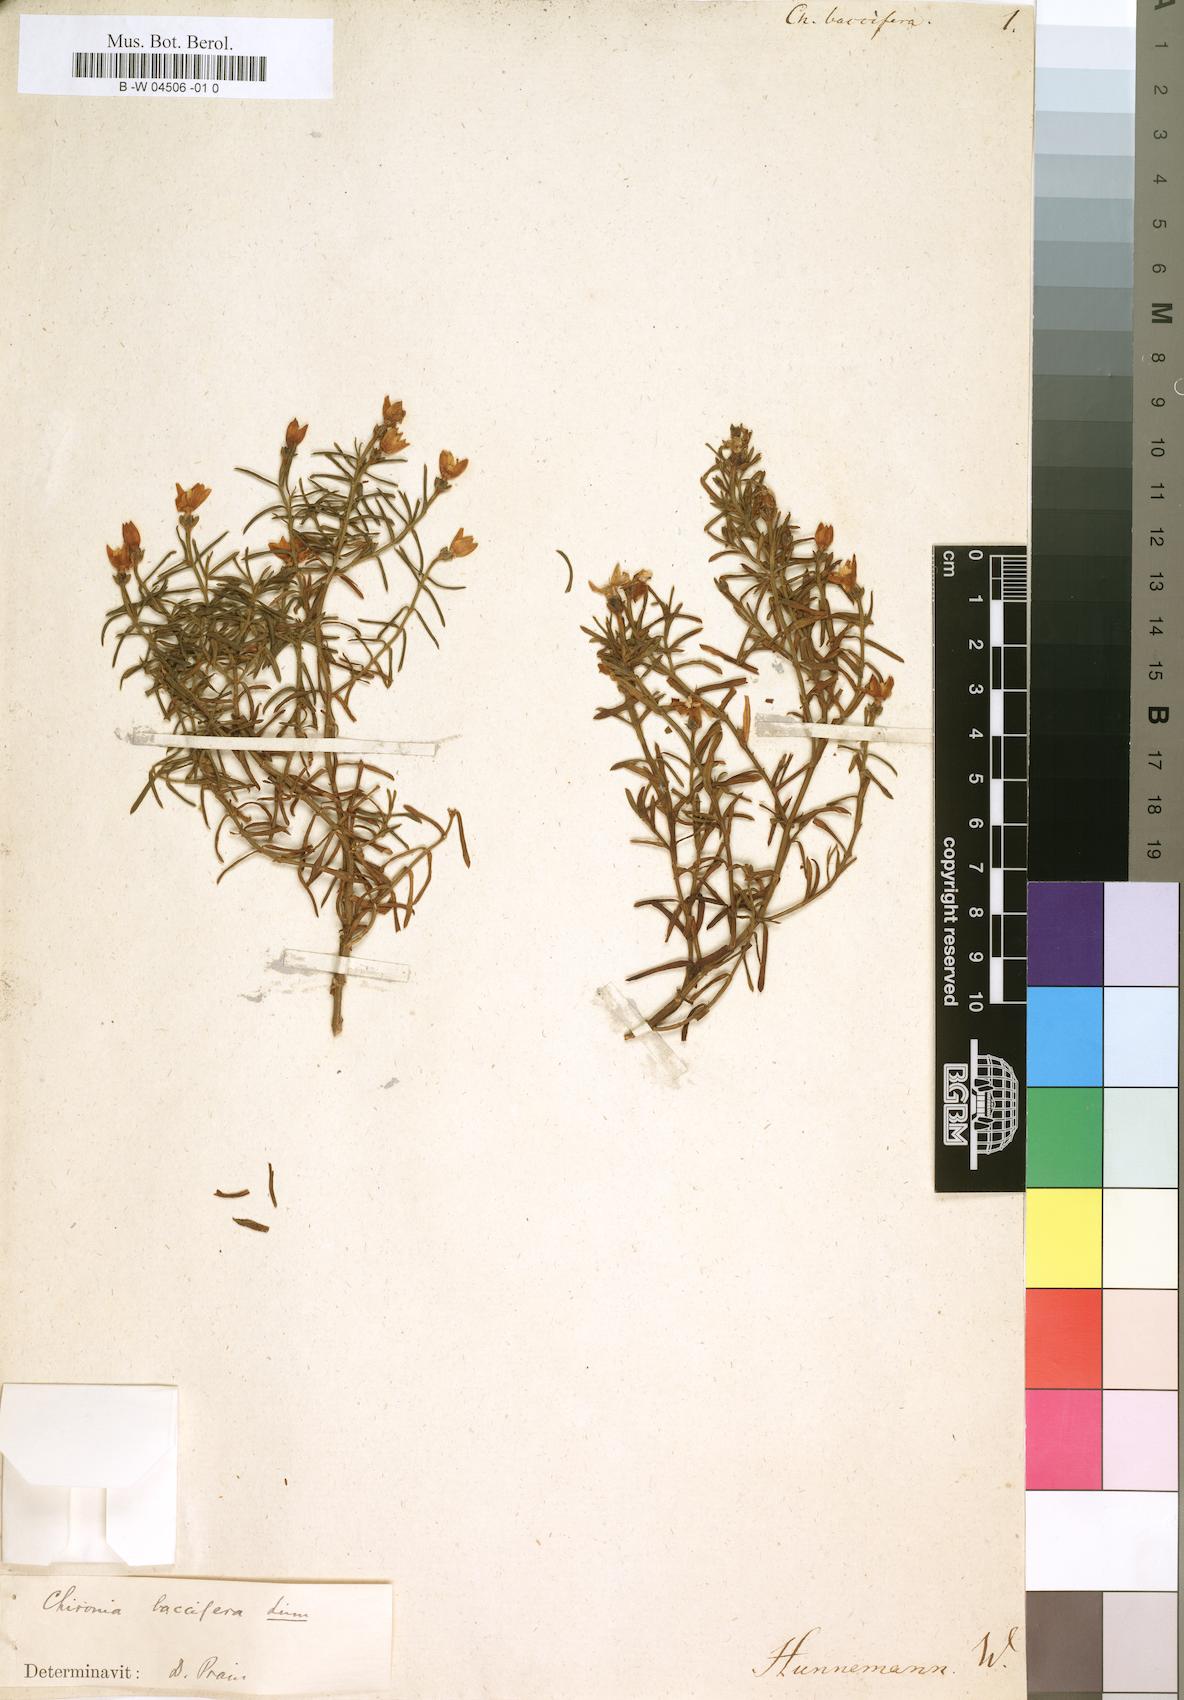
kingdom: Plantae
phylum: Tracheophyta
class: Magnoliopsida
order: Gentianales
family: Gentianaceae
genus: Chironia
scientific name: Chironia baccifera
